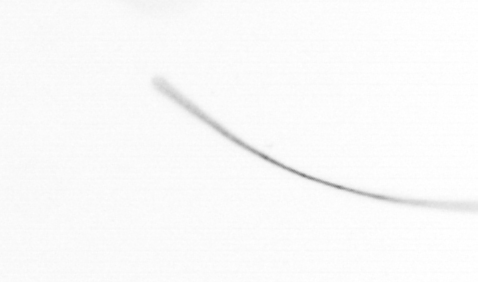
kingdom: Chromista
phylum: Ochrophyta
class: Bacillariophyceae
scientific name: Bacillariophyceae
